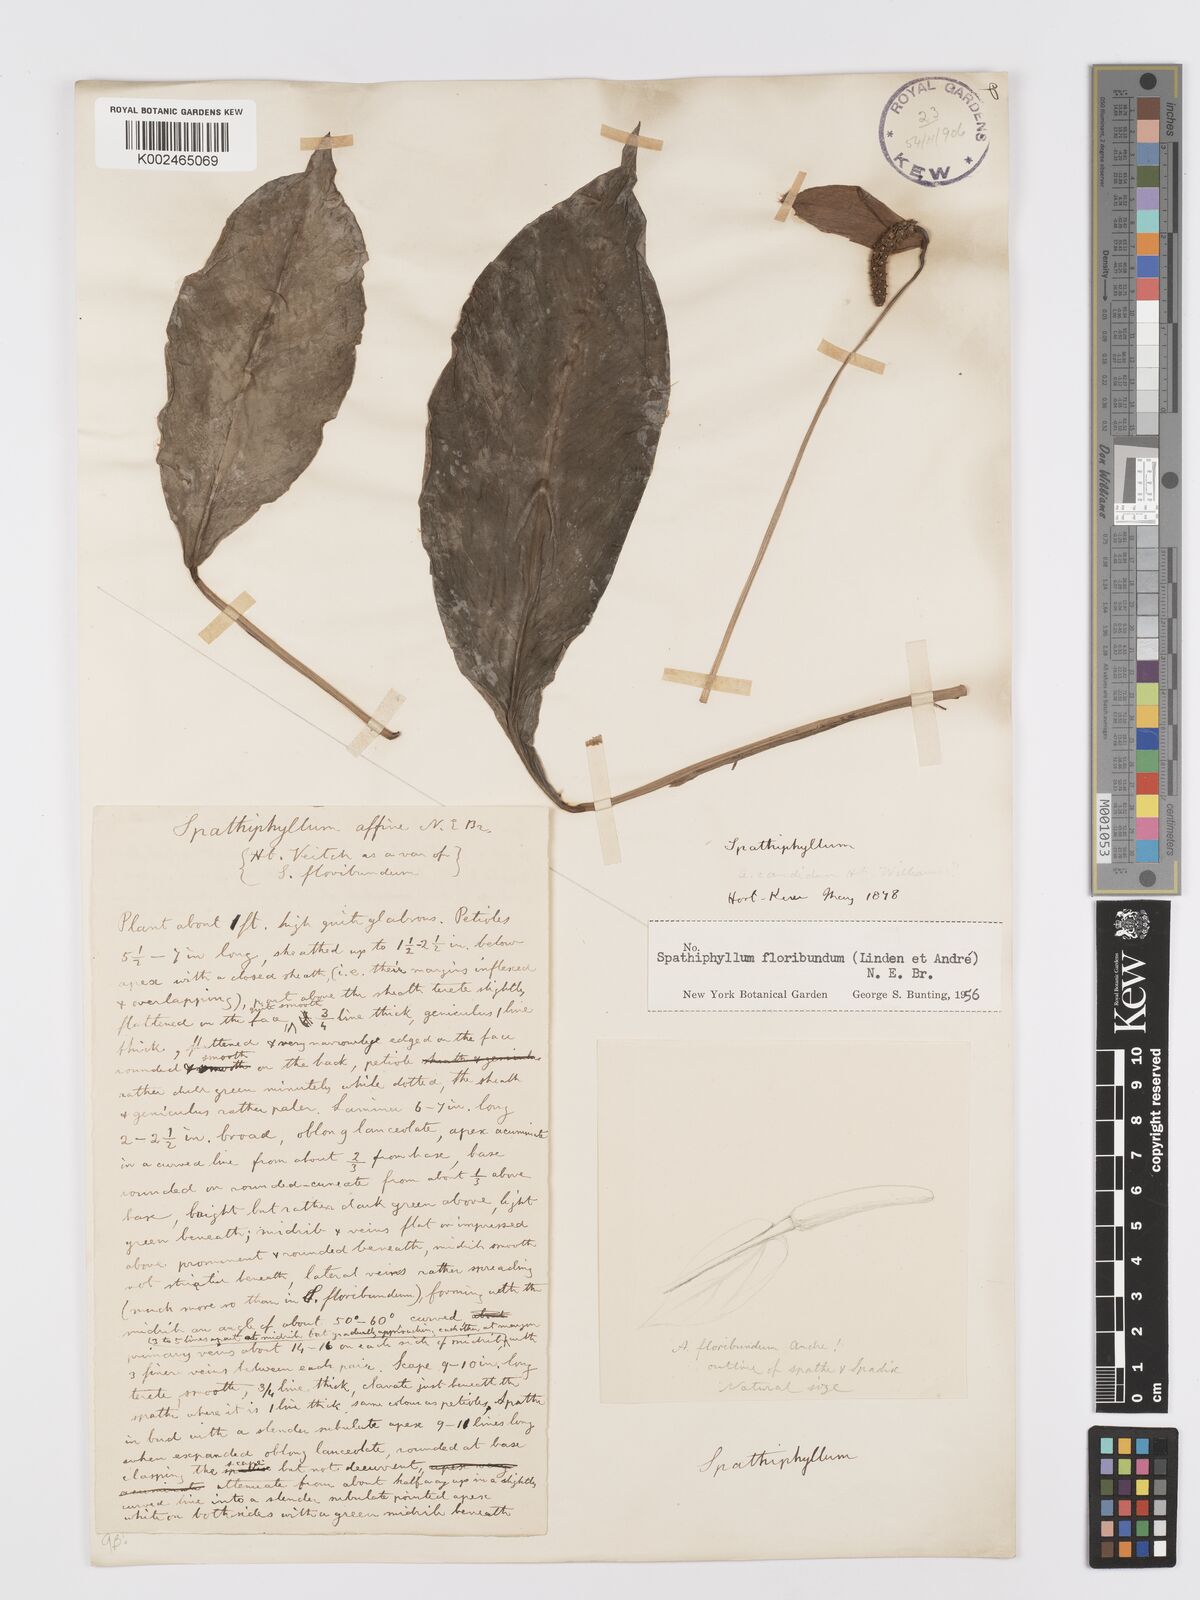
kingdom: Plantae
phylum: Tracheophyta
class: Liliopsida
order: Alismatales
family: Araceae
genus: Spathiphyllum
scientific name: Spathiphyllum floribundum
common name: Peace-lily
